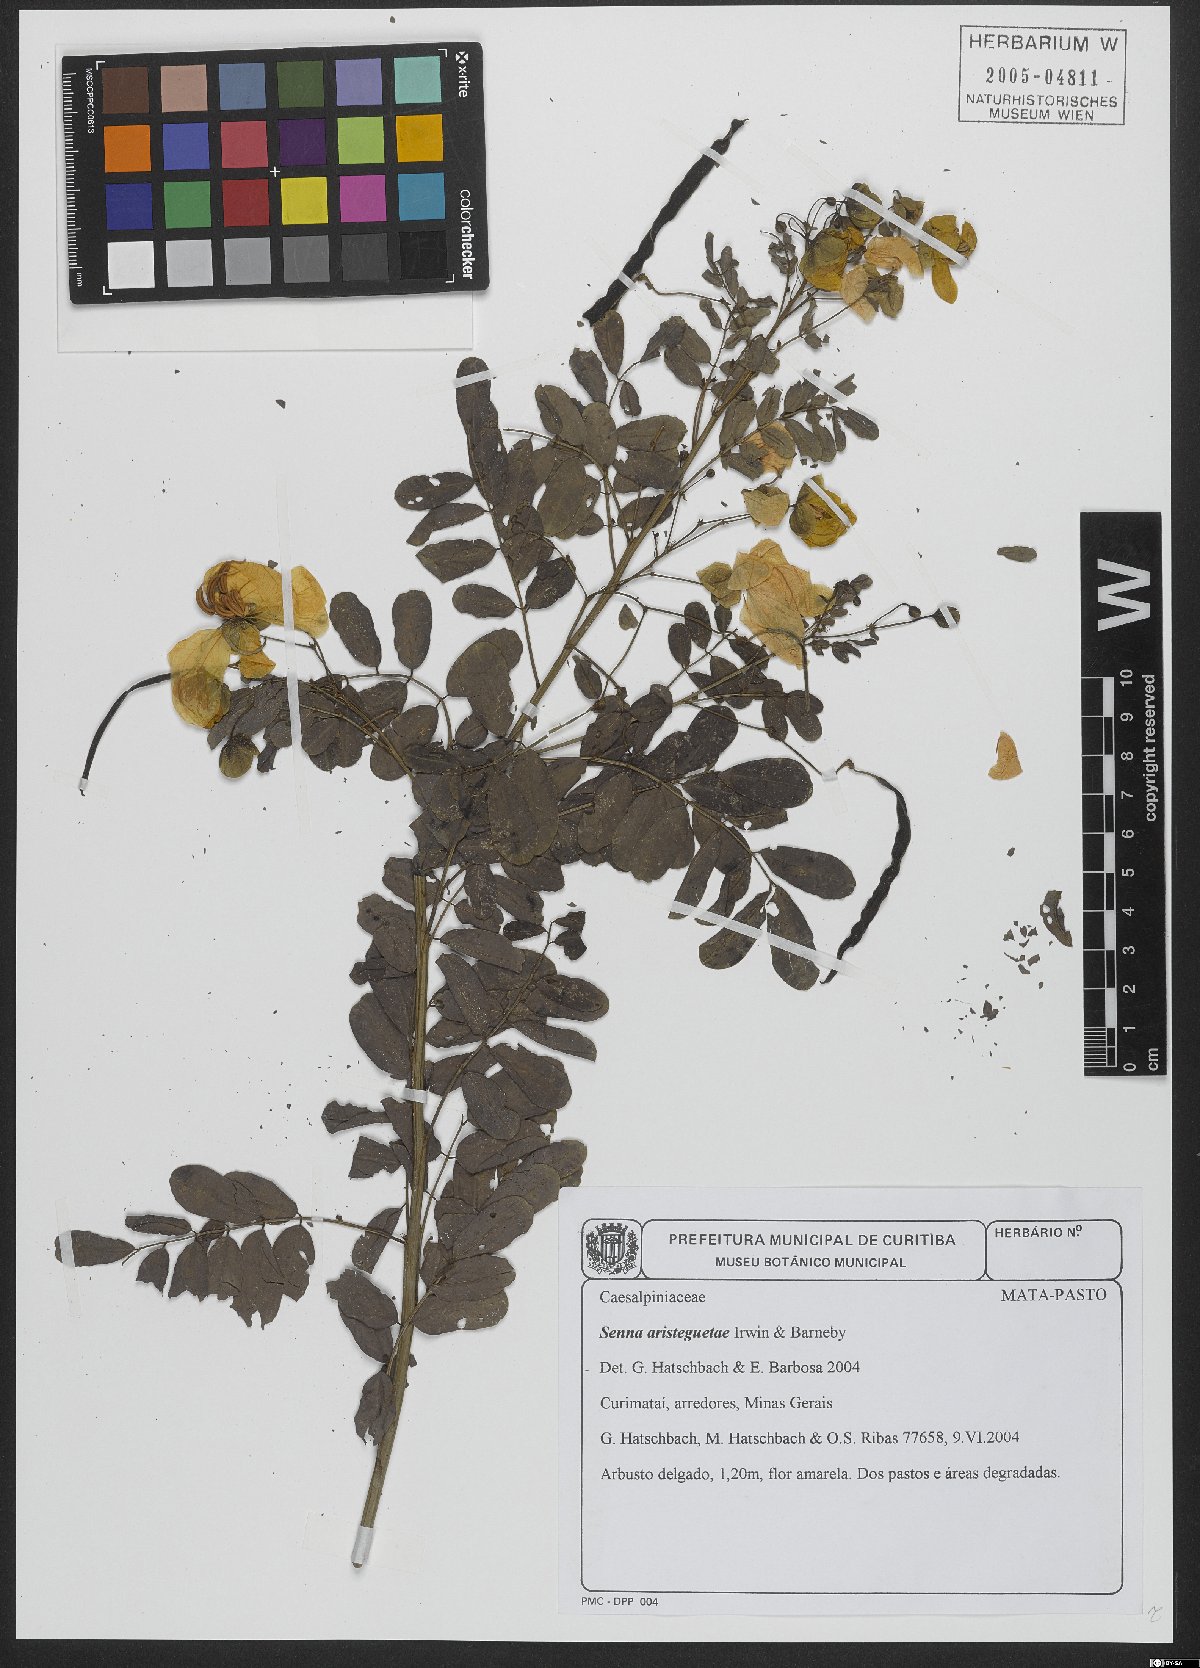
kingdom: Plantae
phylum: Tracheophyta
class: Magnoliopsida
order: Fabales
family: Fabaceae
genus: Senna
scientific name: Senna aristeguietae
